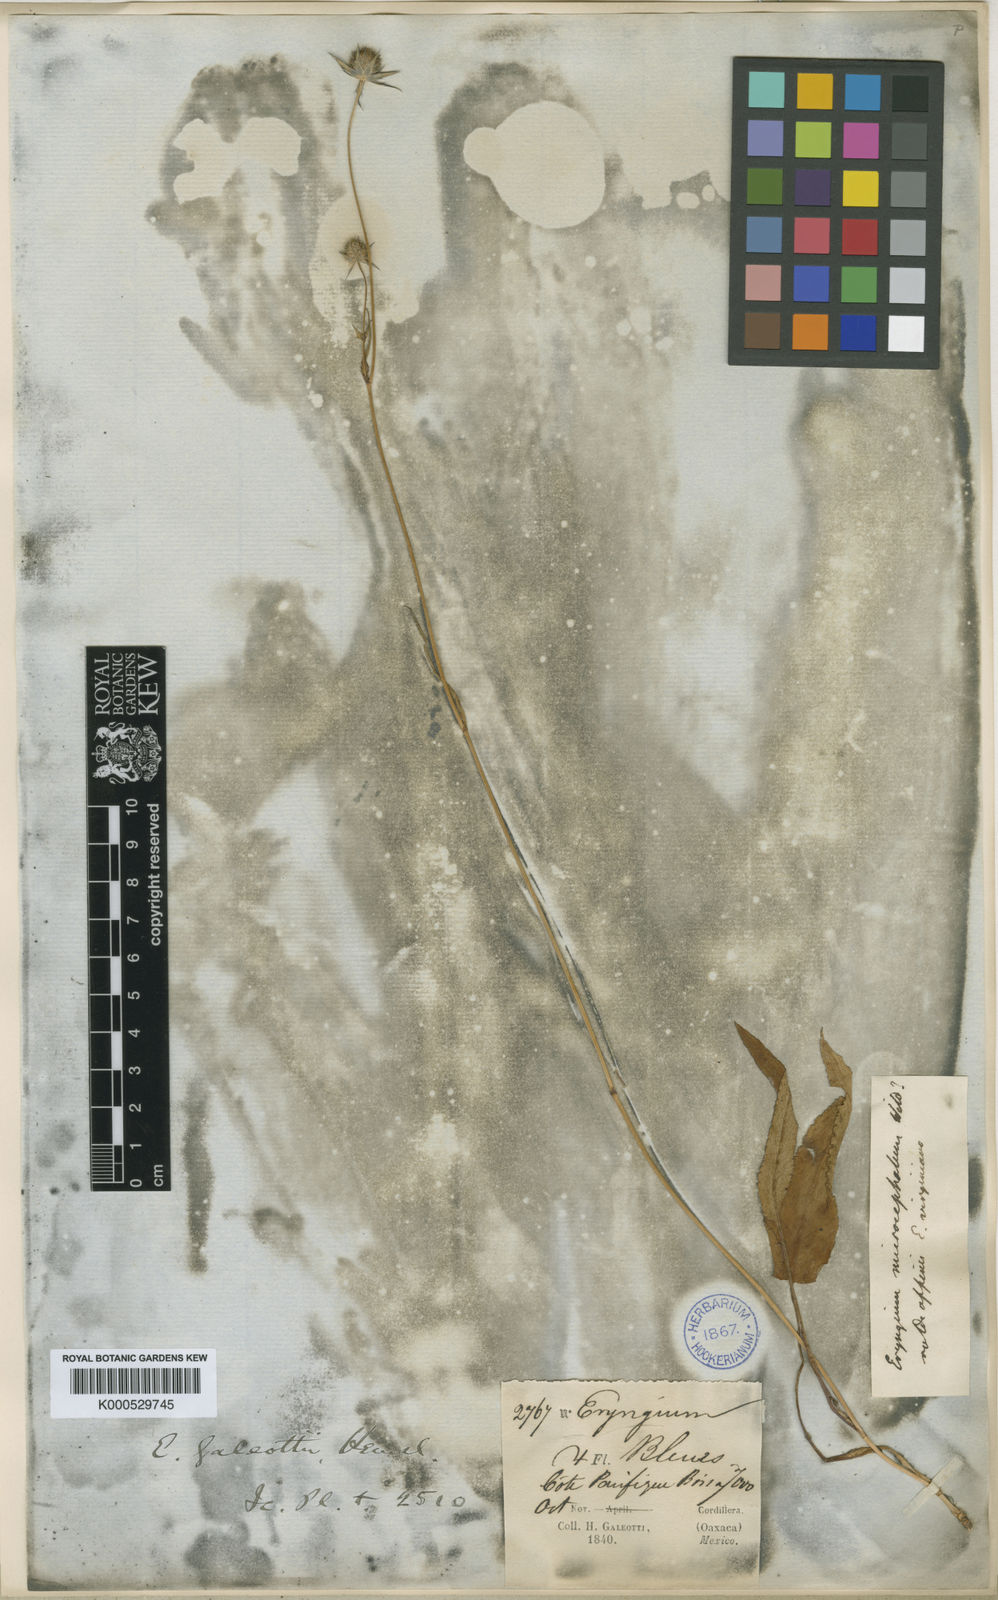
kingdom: Plantae
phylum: Tracheophyta
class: Magnoliopsida
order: Apiales
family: Apiaceae
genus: Eryngium
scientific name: Eryngium galeottii
